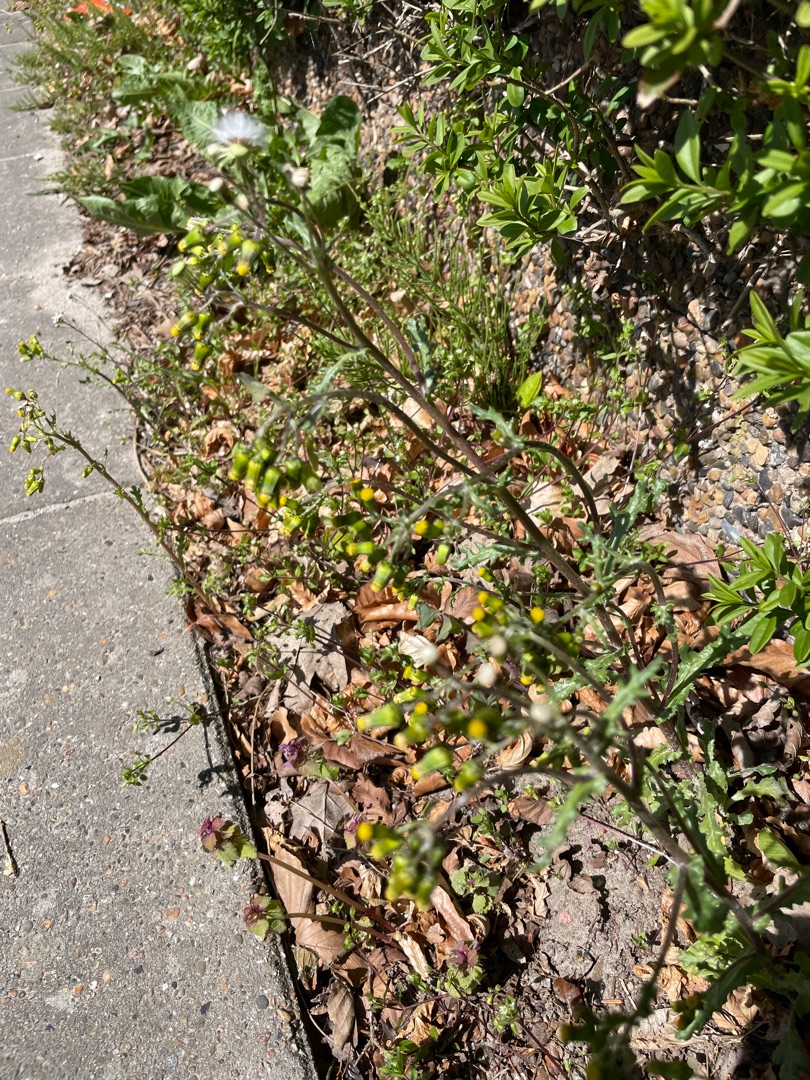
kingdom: Plantae
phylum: Tracheophyta
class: Magnoliopsida
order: Asterales
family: Asteraceae
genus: Senecio
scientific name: Senecio vulgaris
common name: Almindelig brandbæger
